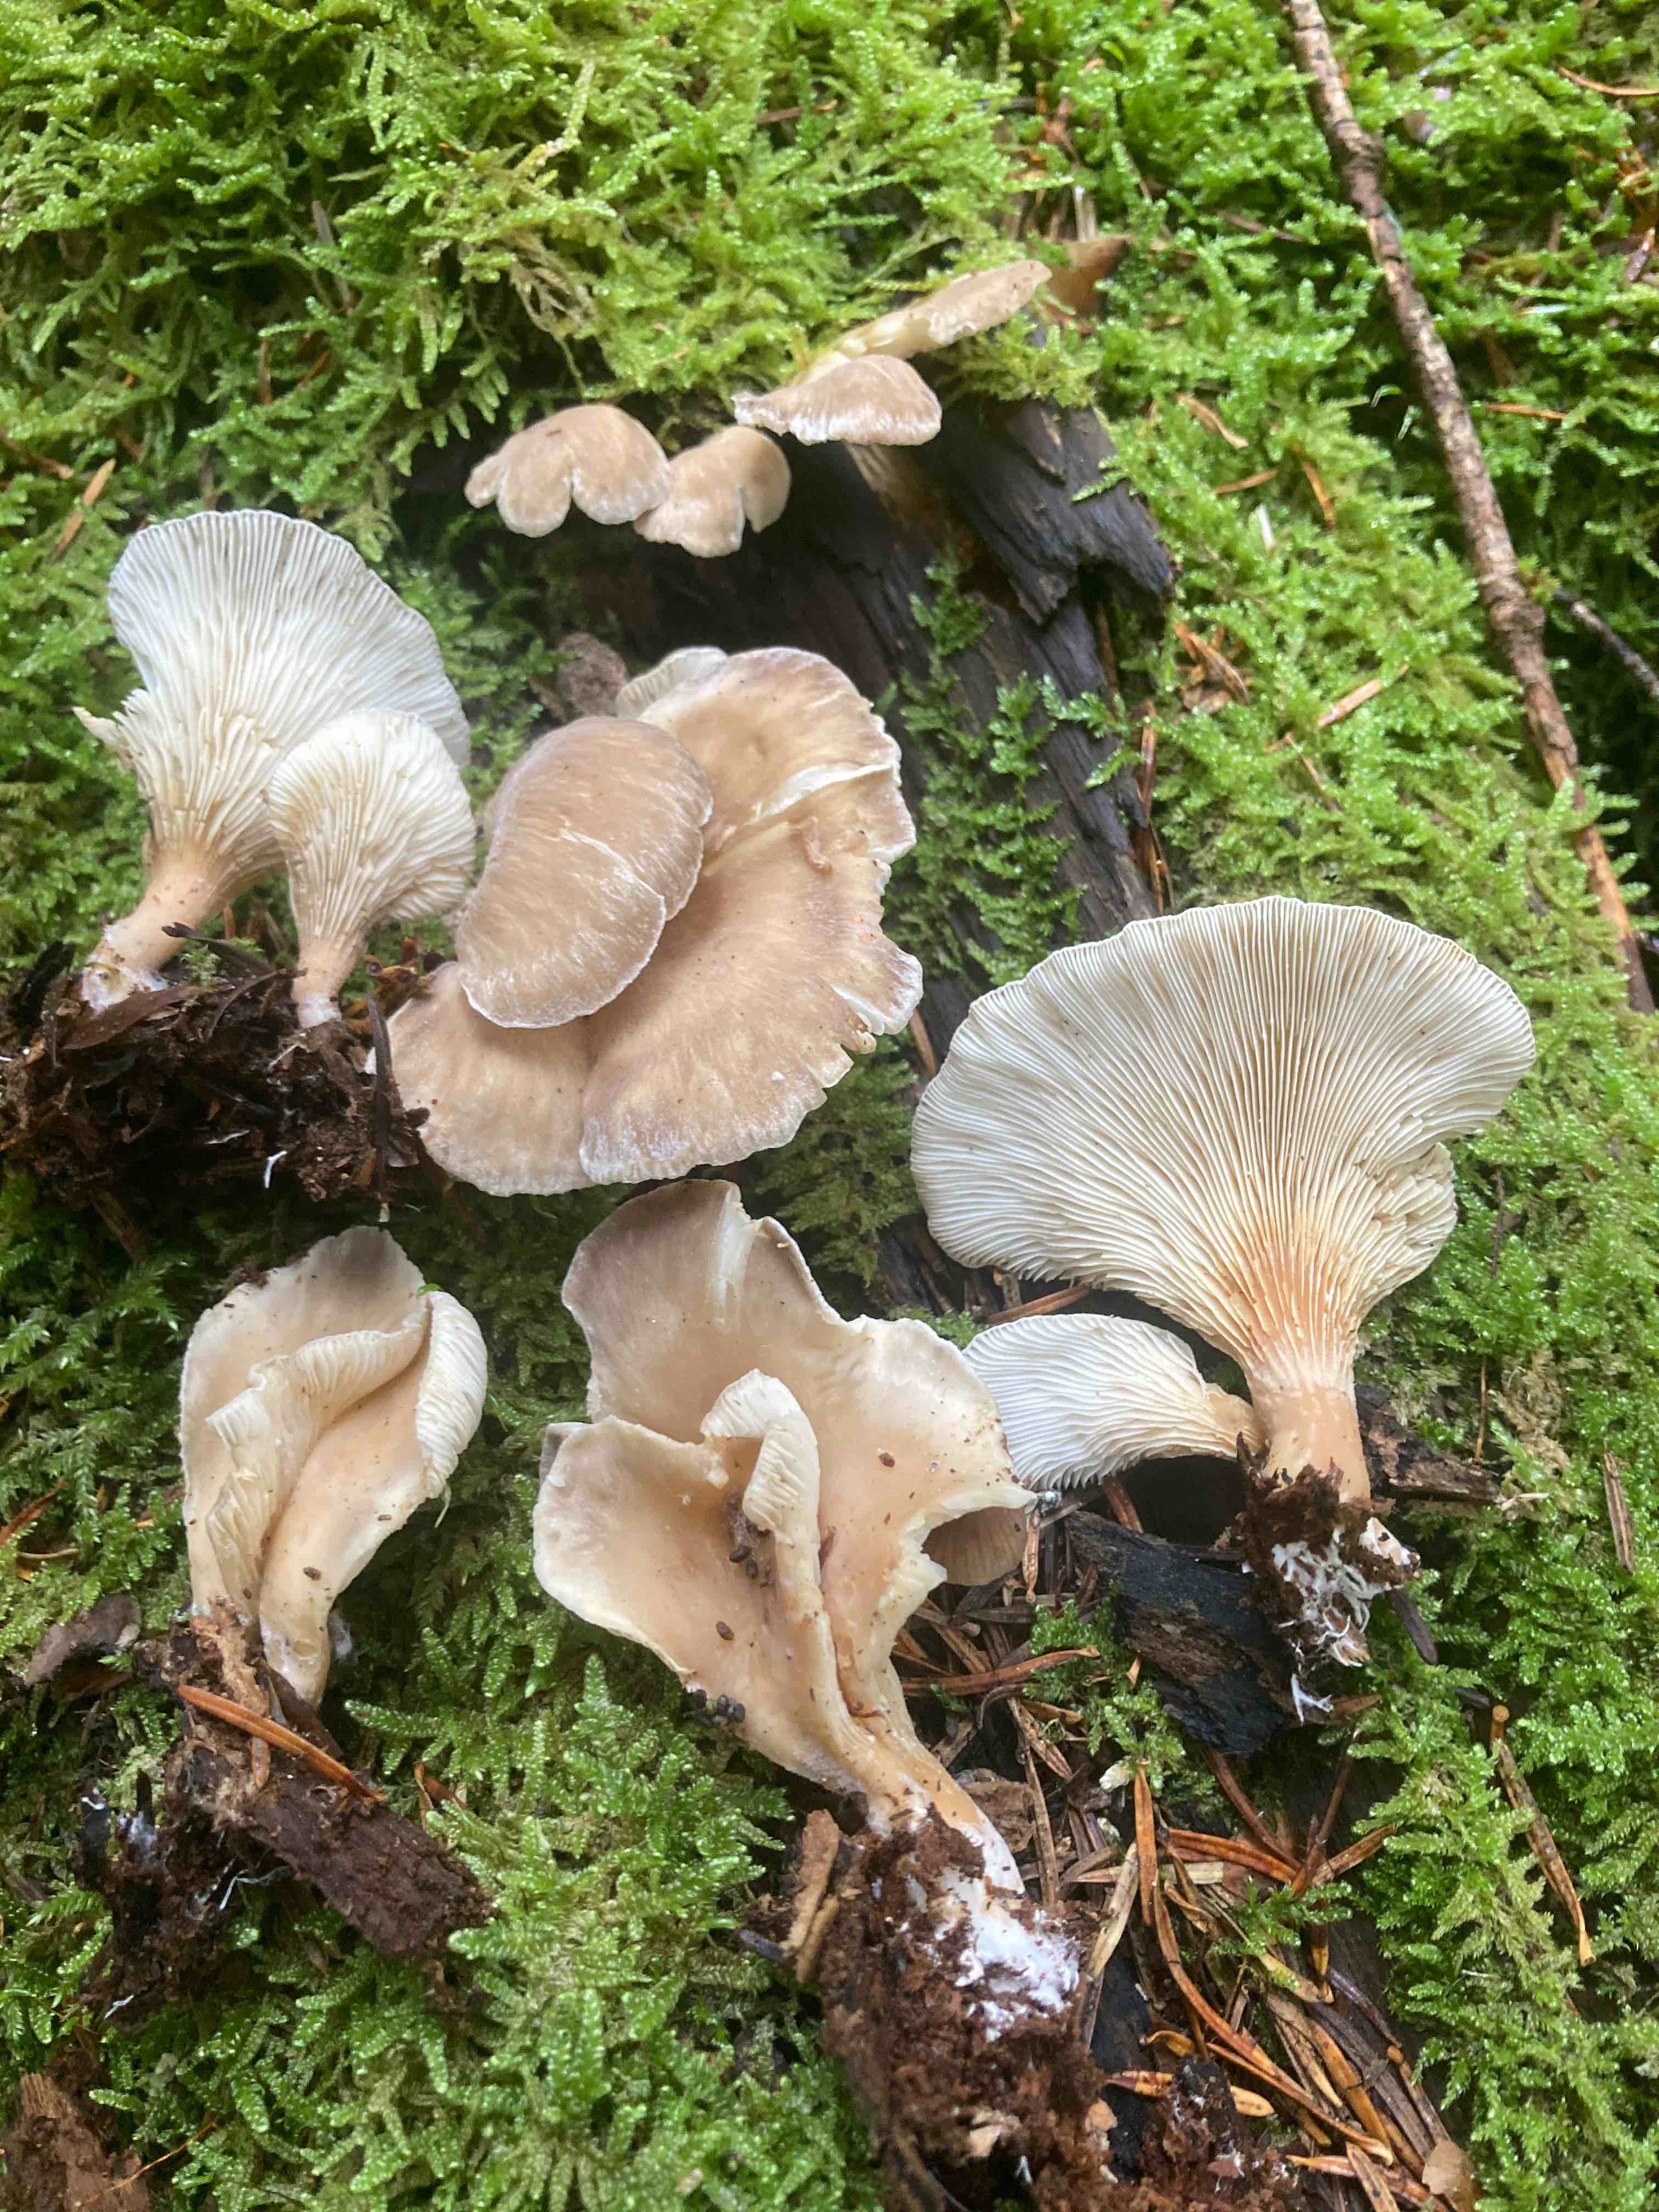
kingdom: Fungi
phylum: Basidiomycota
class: Agaricomycetes
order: Agaricales
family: Pleurotaceae
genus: Hohenbuehelia
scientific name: Hohenbuehelia auriscalpium
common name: spatel-filthat
